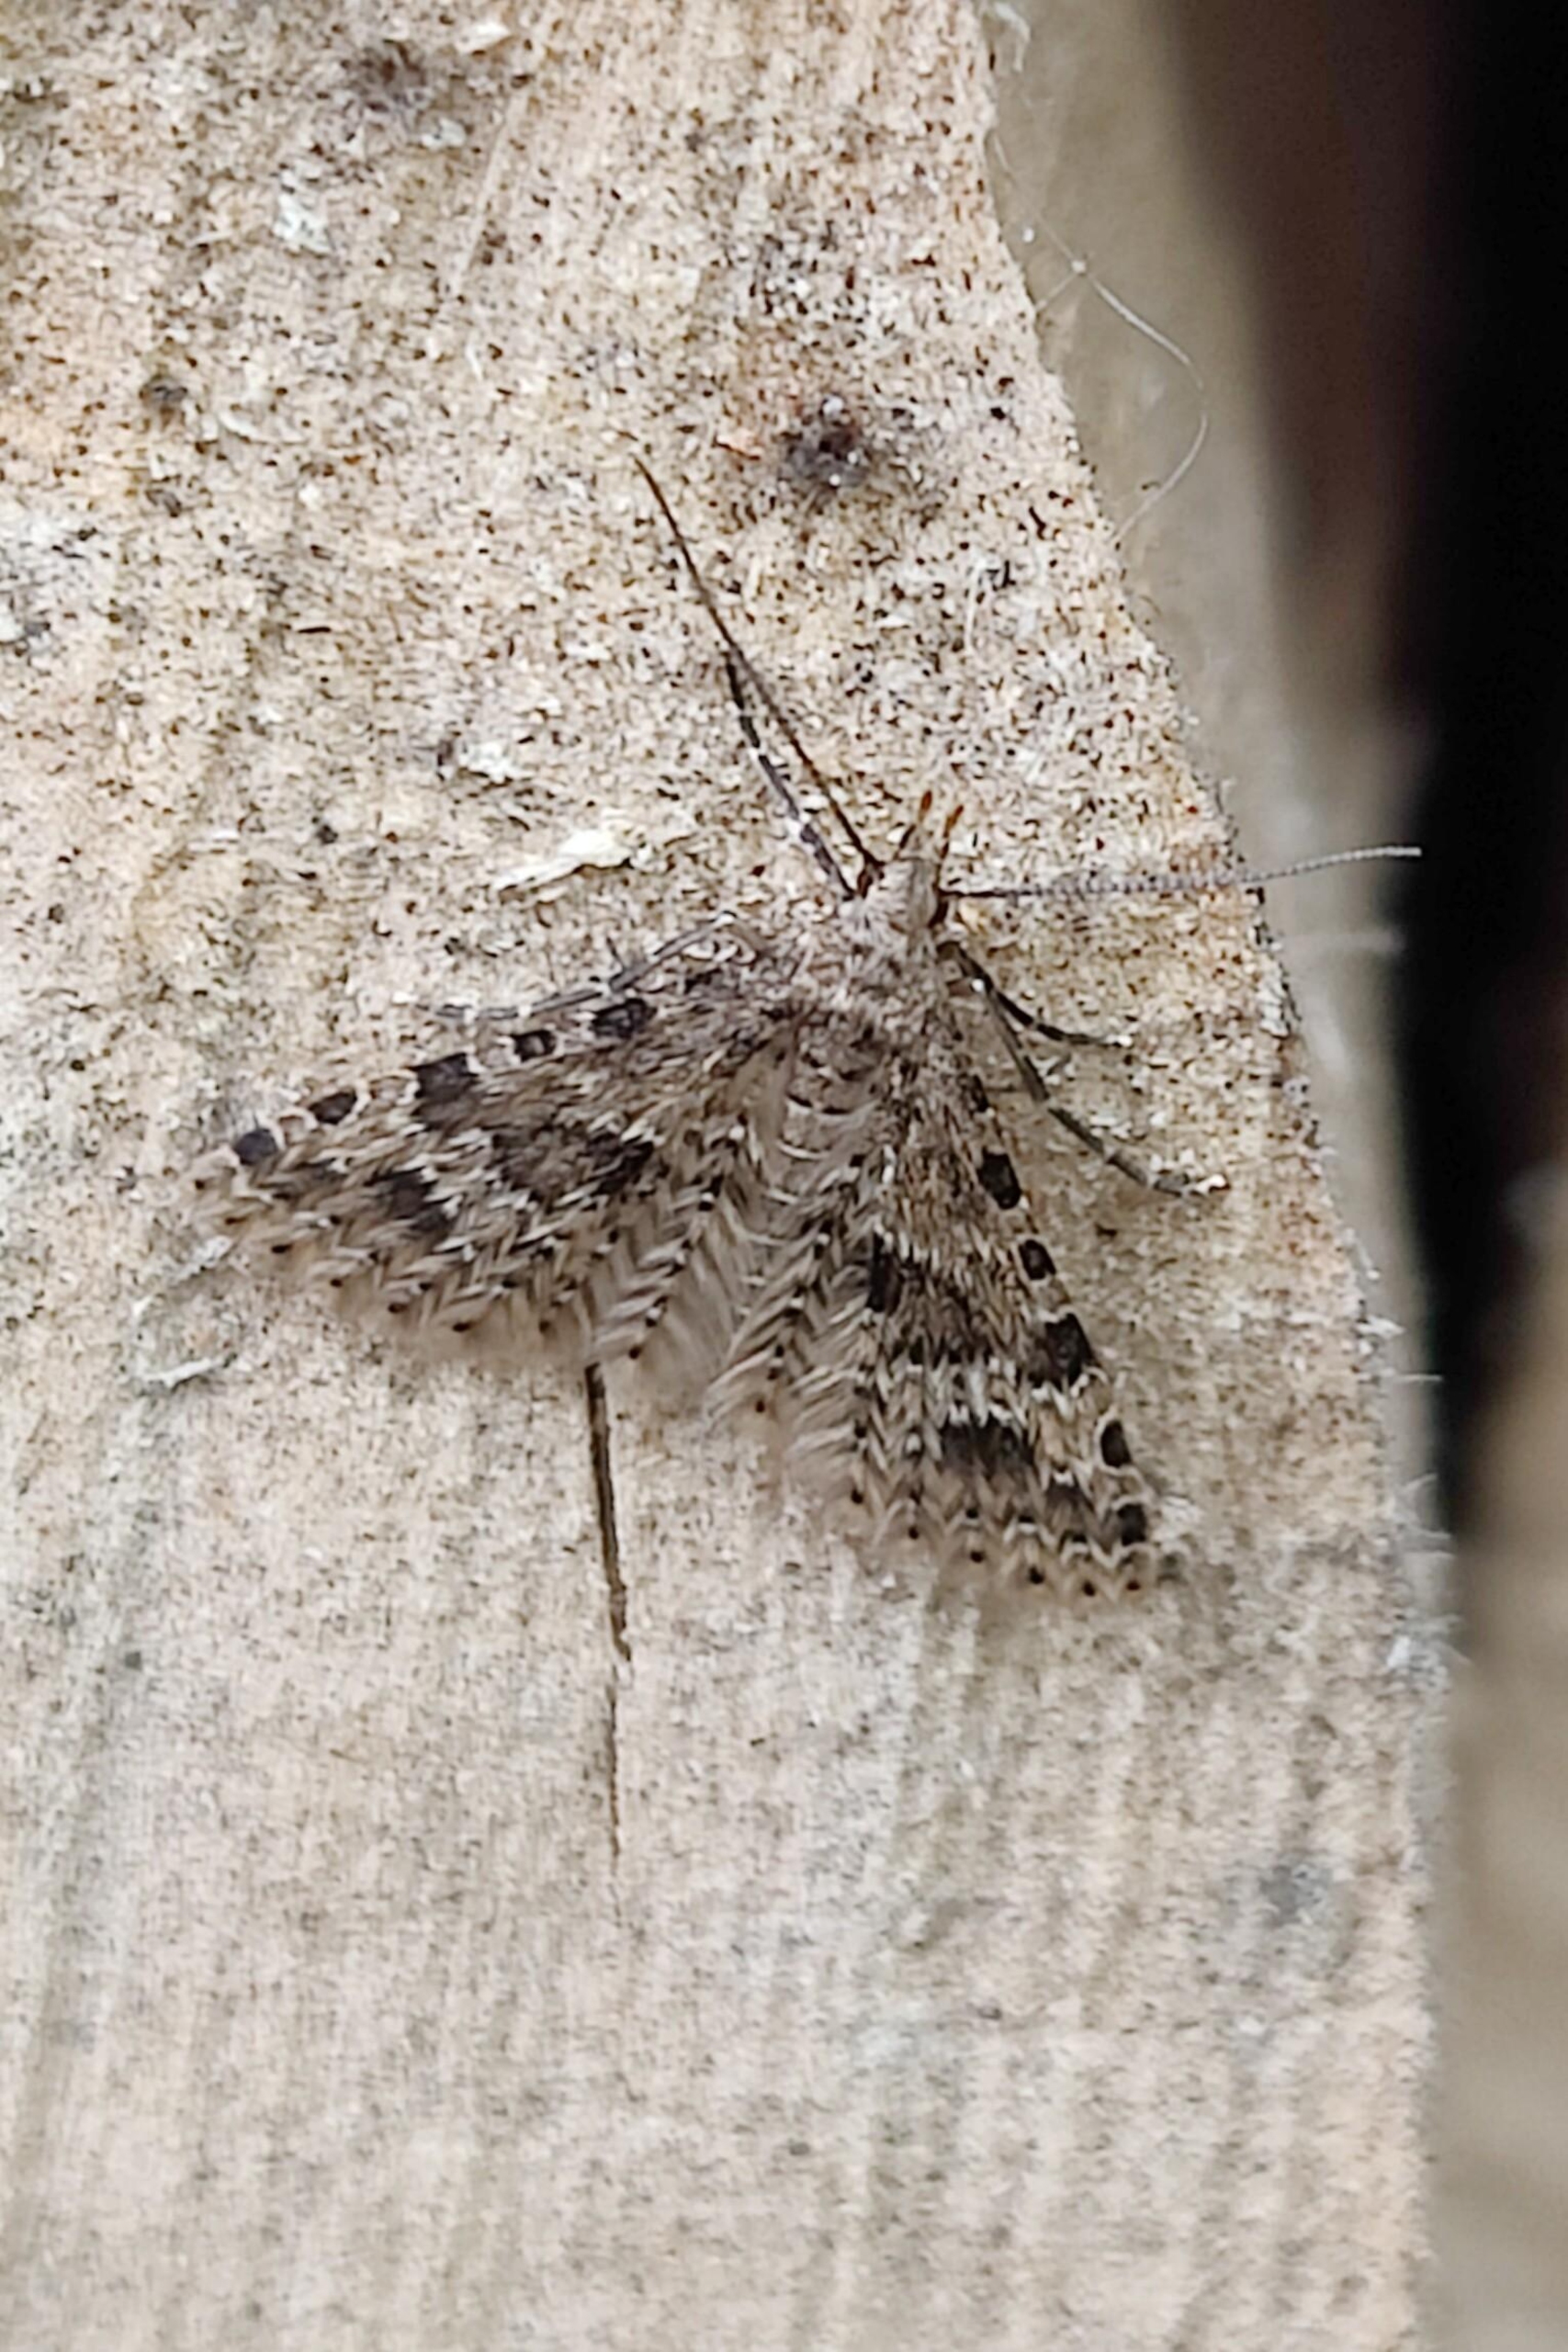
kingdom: Animalia
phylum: Arthropoda
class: Insecta
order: Lepidoptera
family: Alucitidae
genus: Alucita
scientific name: Alucita hexadactyla
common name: Kaprifoliefjermøl
